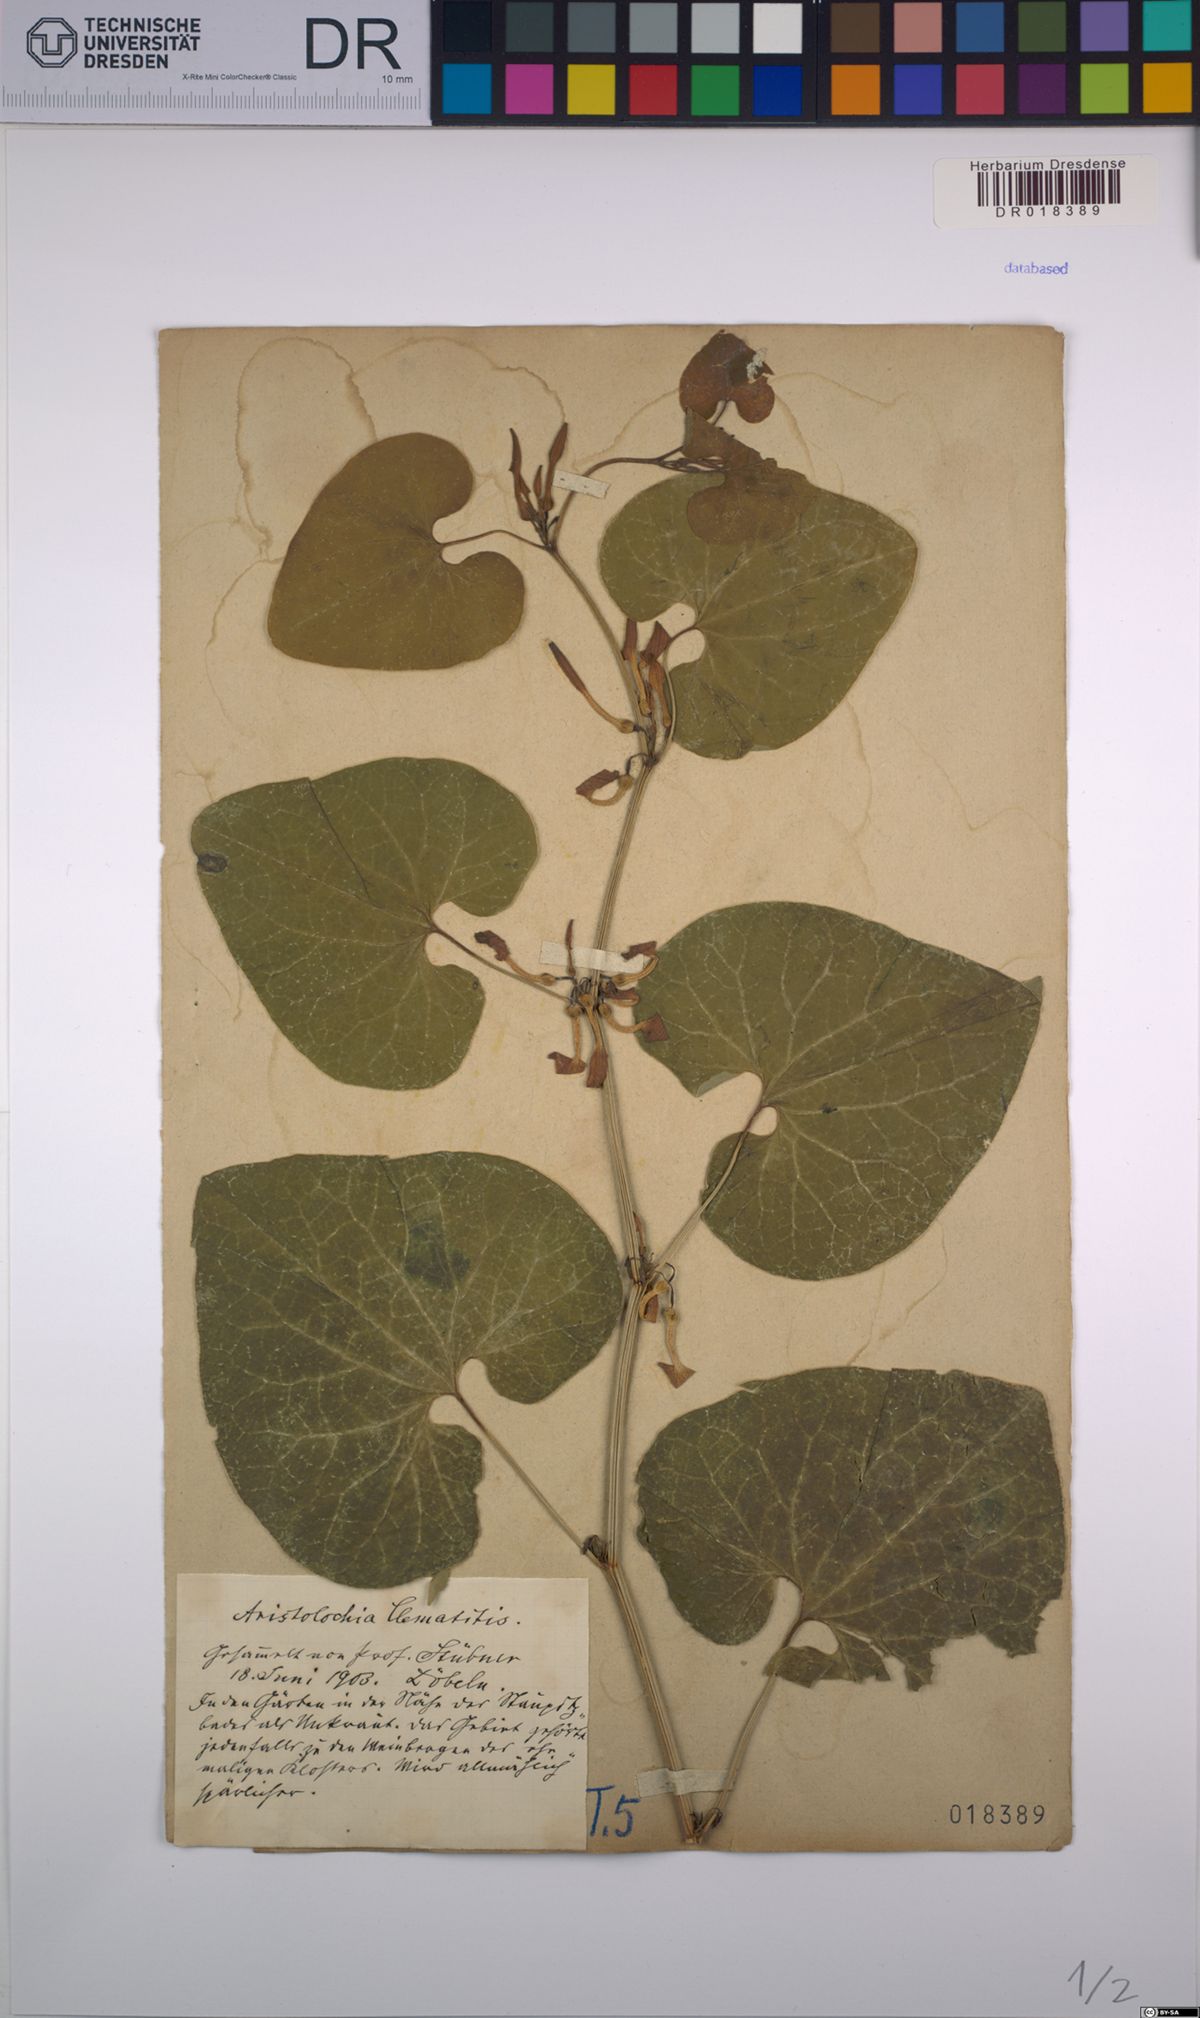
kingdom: Plantae
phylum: Tracheophyta
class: Magnoliopsida
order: Piperales
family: Aristolochiaceae
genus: Aristolochia
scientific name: Aristolochia clematitis
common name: Birthwort
